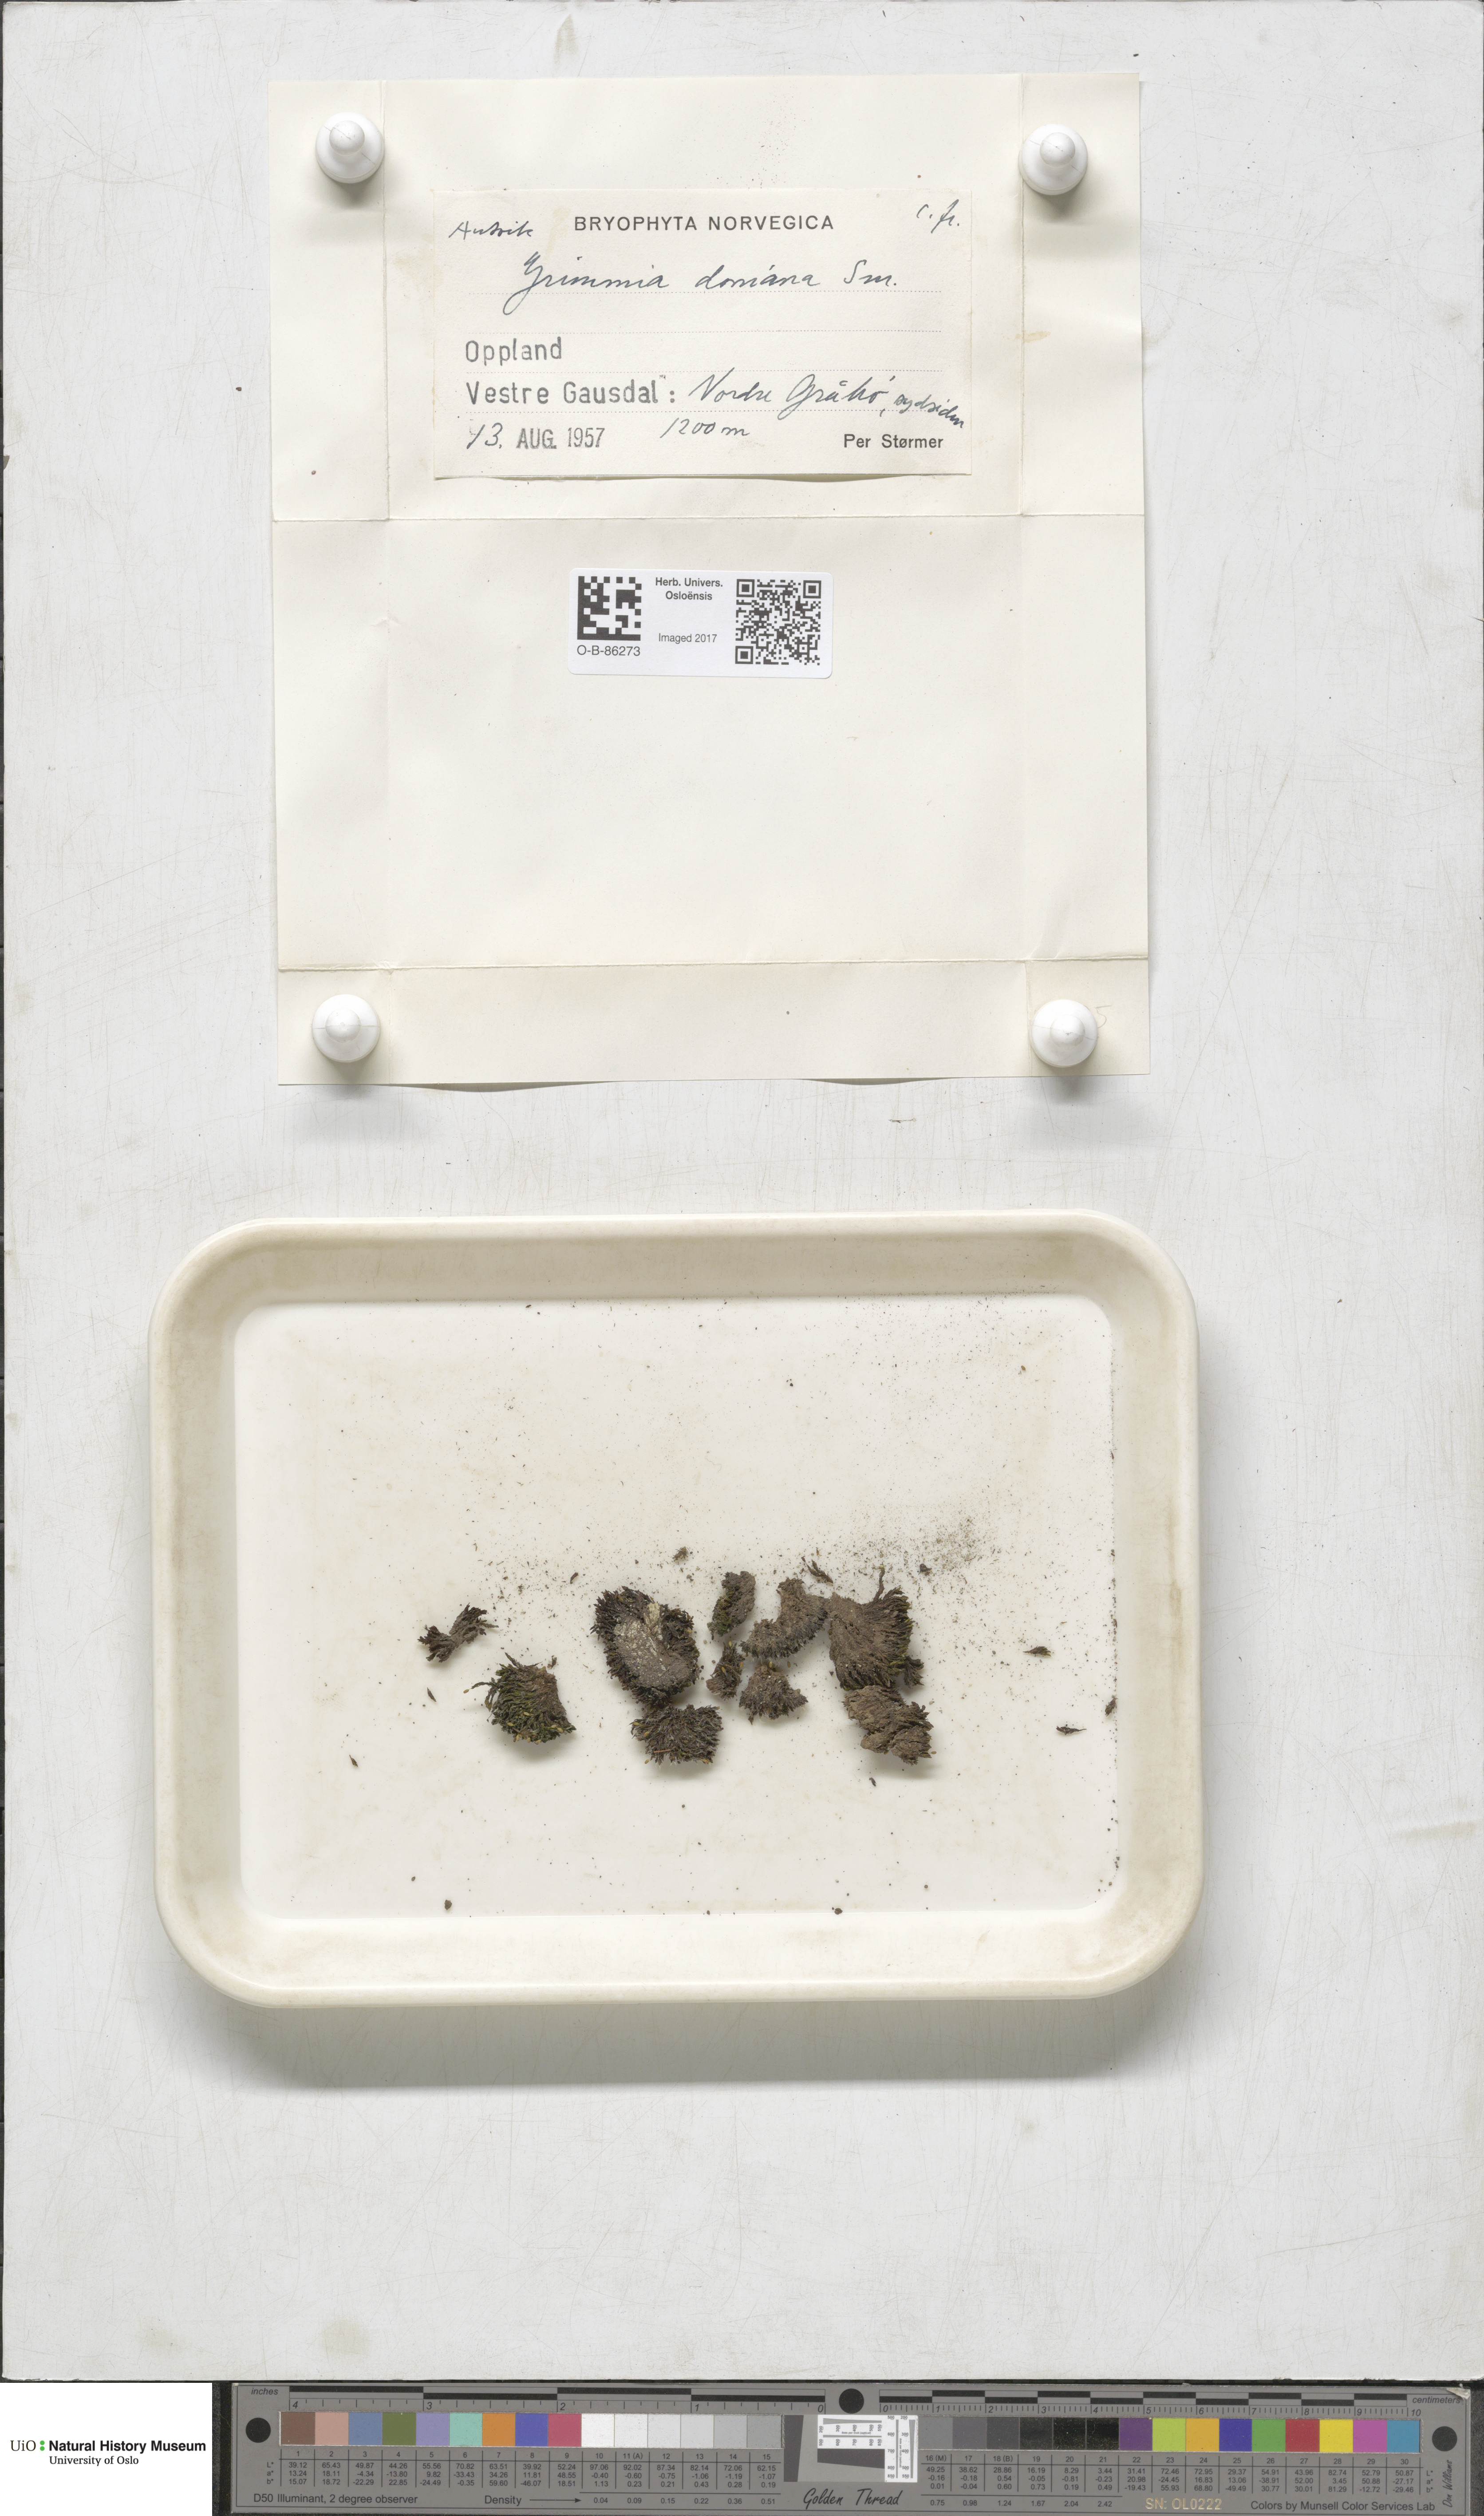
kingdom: Plantae
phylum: Bryophyta
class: Bryopsida
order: Grimmiales
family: Grimmiaceae
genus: Grimmia
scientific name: Grimmia donniana
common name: Donn's grimmia
